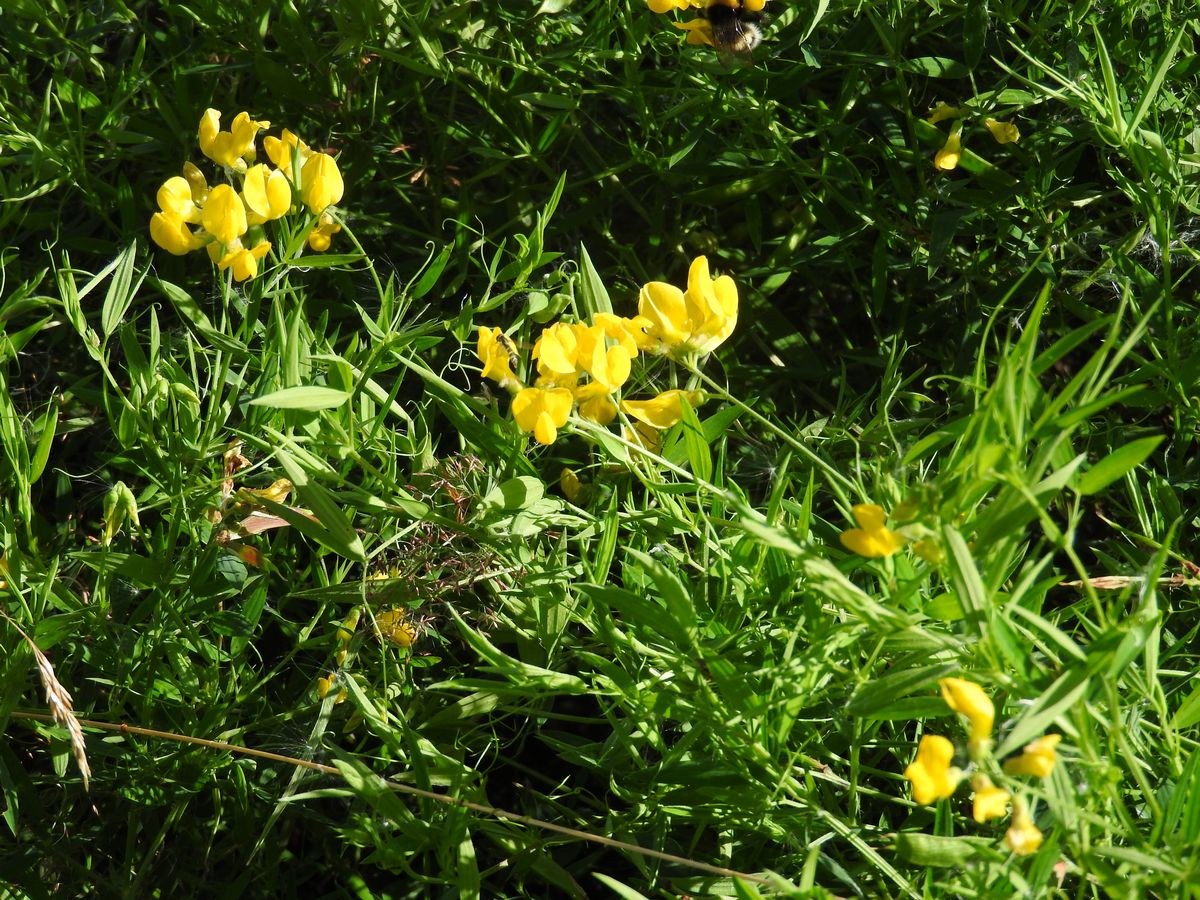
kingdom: Plantae
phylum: Tracheophyta
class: Magnoliopsida
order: Fabales
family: Fabaceae
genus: Lathyrus
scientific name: Lathyrus pratensis
